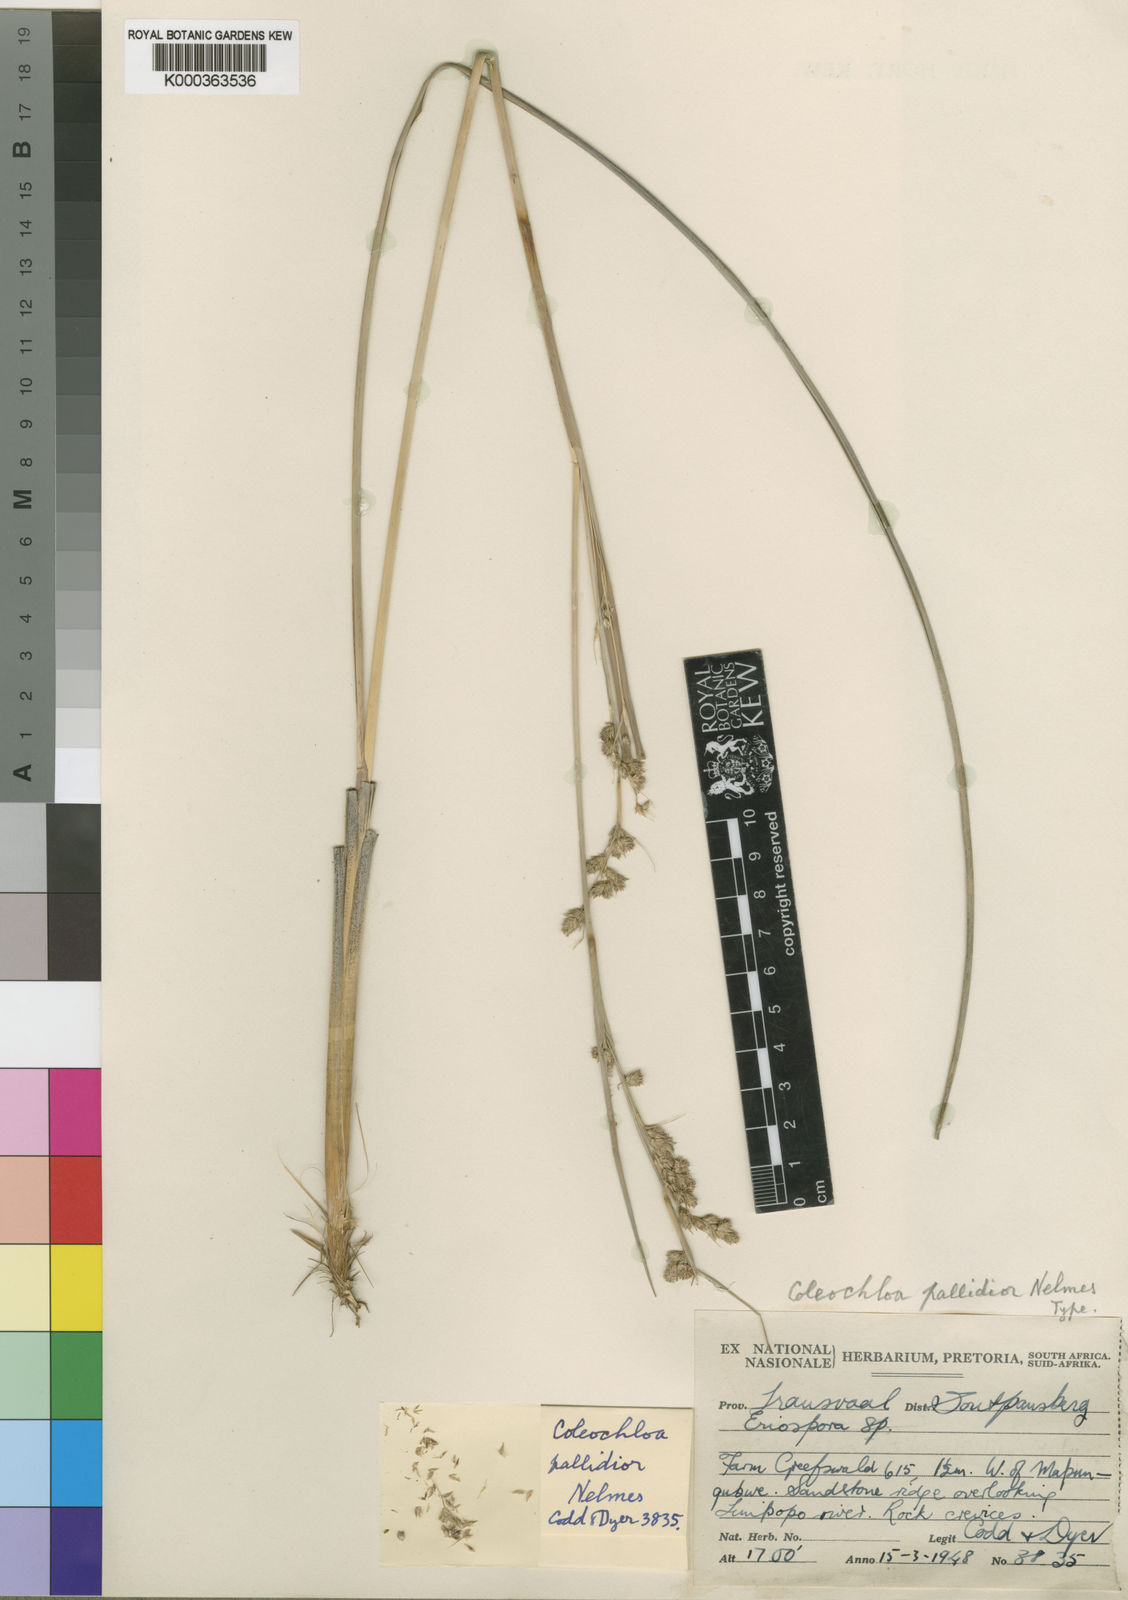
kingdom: Plantae
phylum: Tracheophyta
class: Liliopsida
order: Poales
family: Cyperaceae
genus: Coleochloa
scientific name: Coleochloa pallidior
